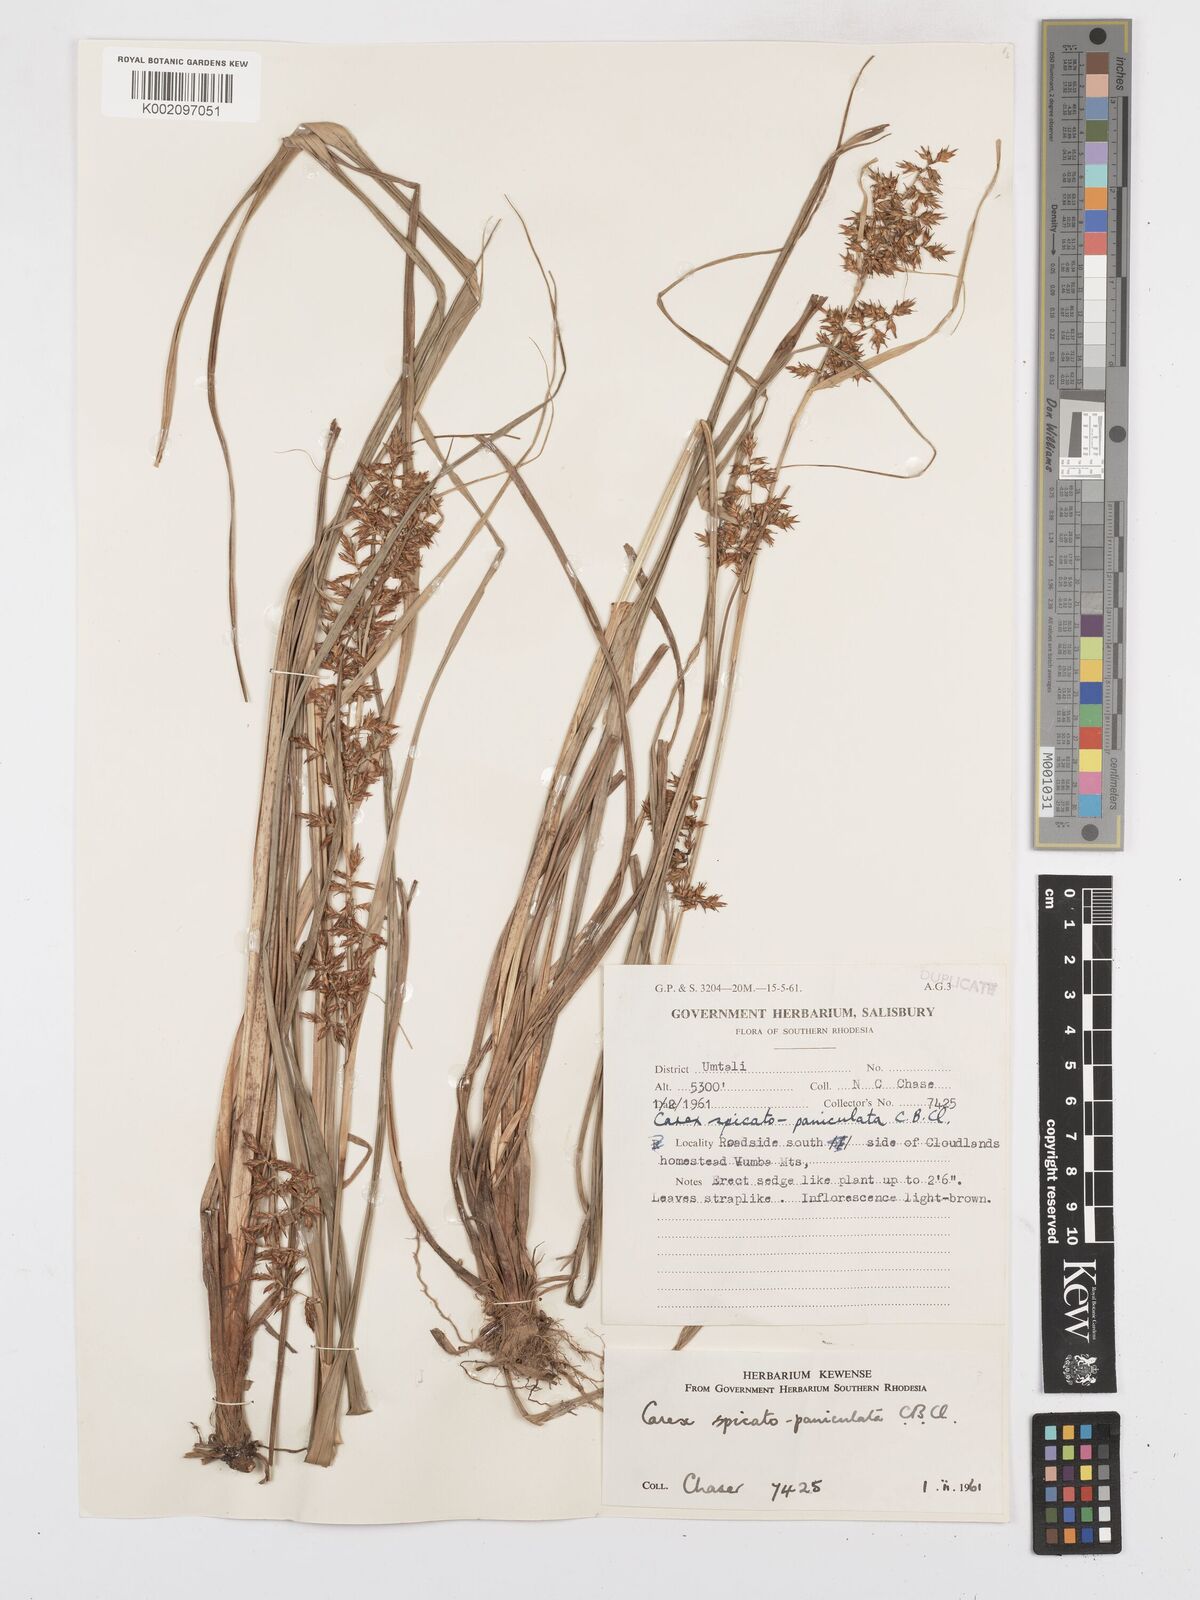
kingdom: Plantae
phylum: Tracheophyta
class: Liliopsida
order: Poales
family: Cyperaceae
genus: Carex
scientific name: Carex spicatopaniculata
